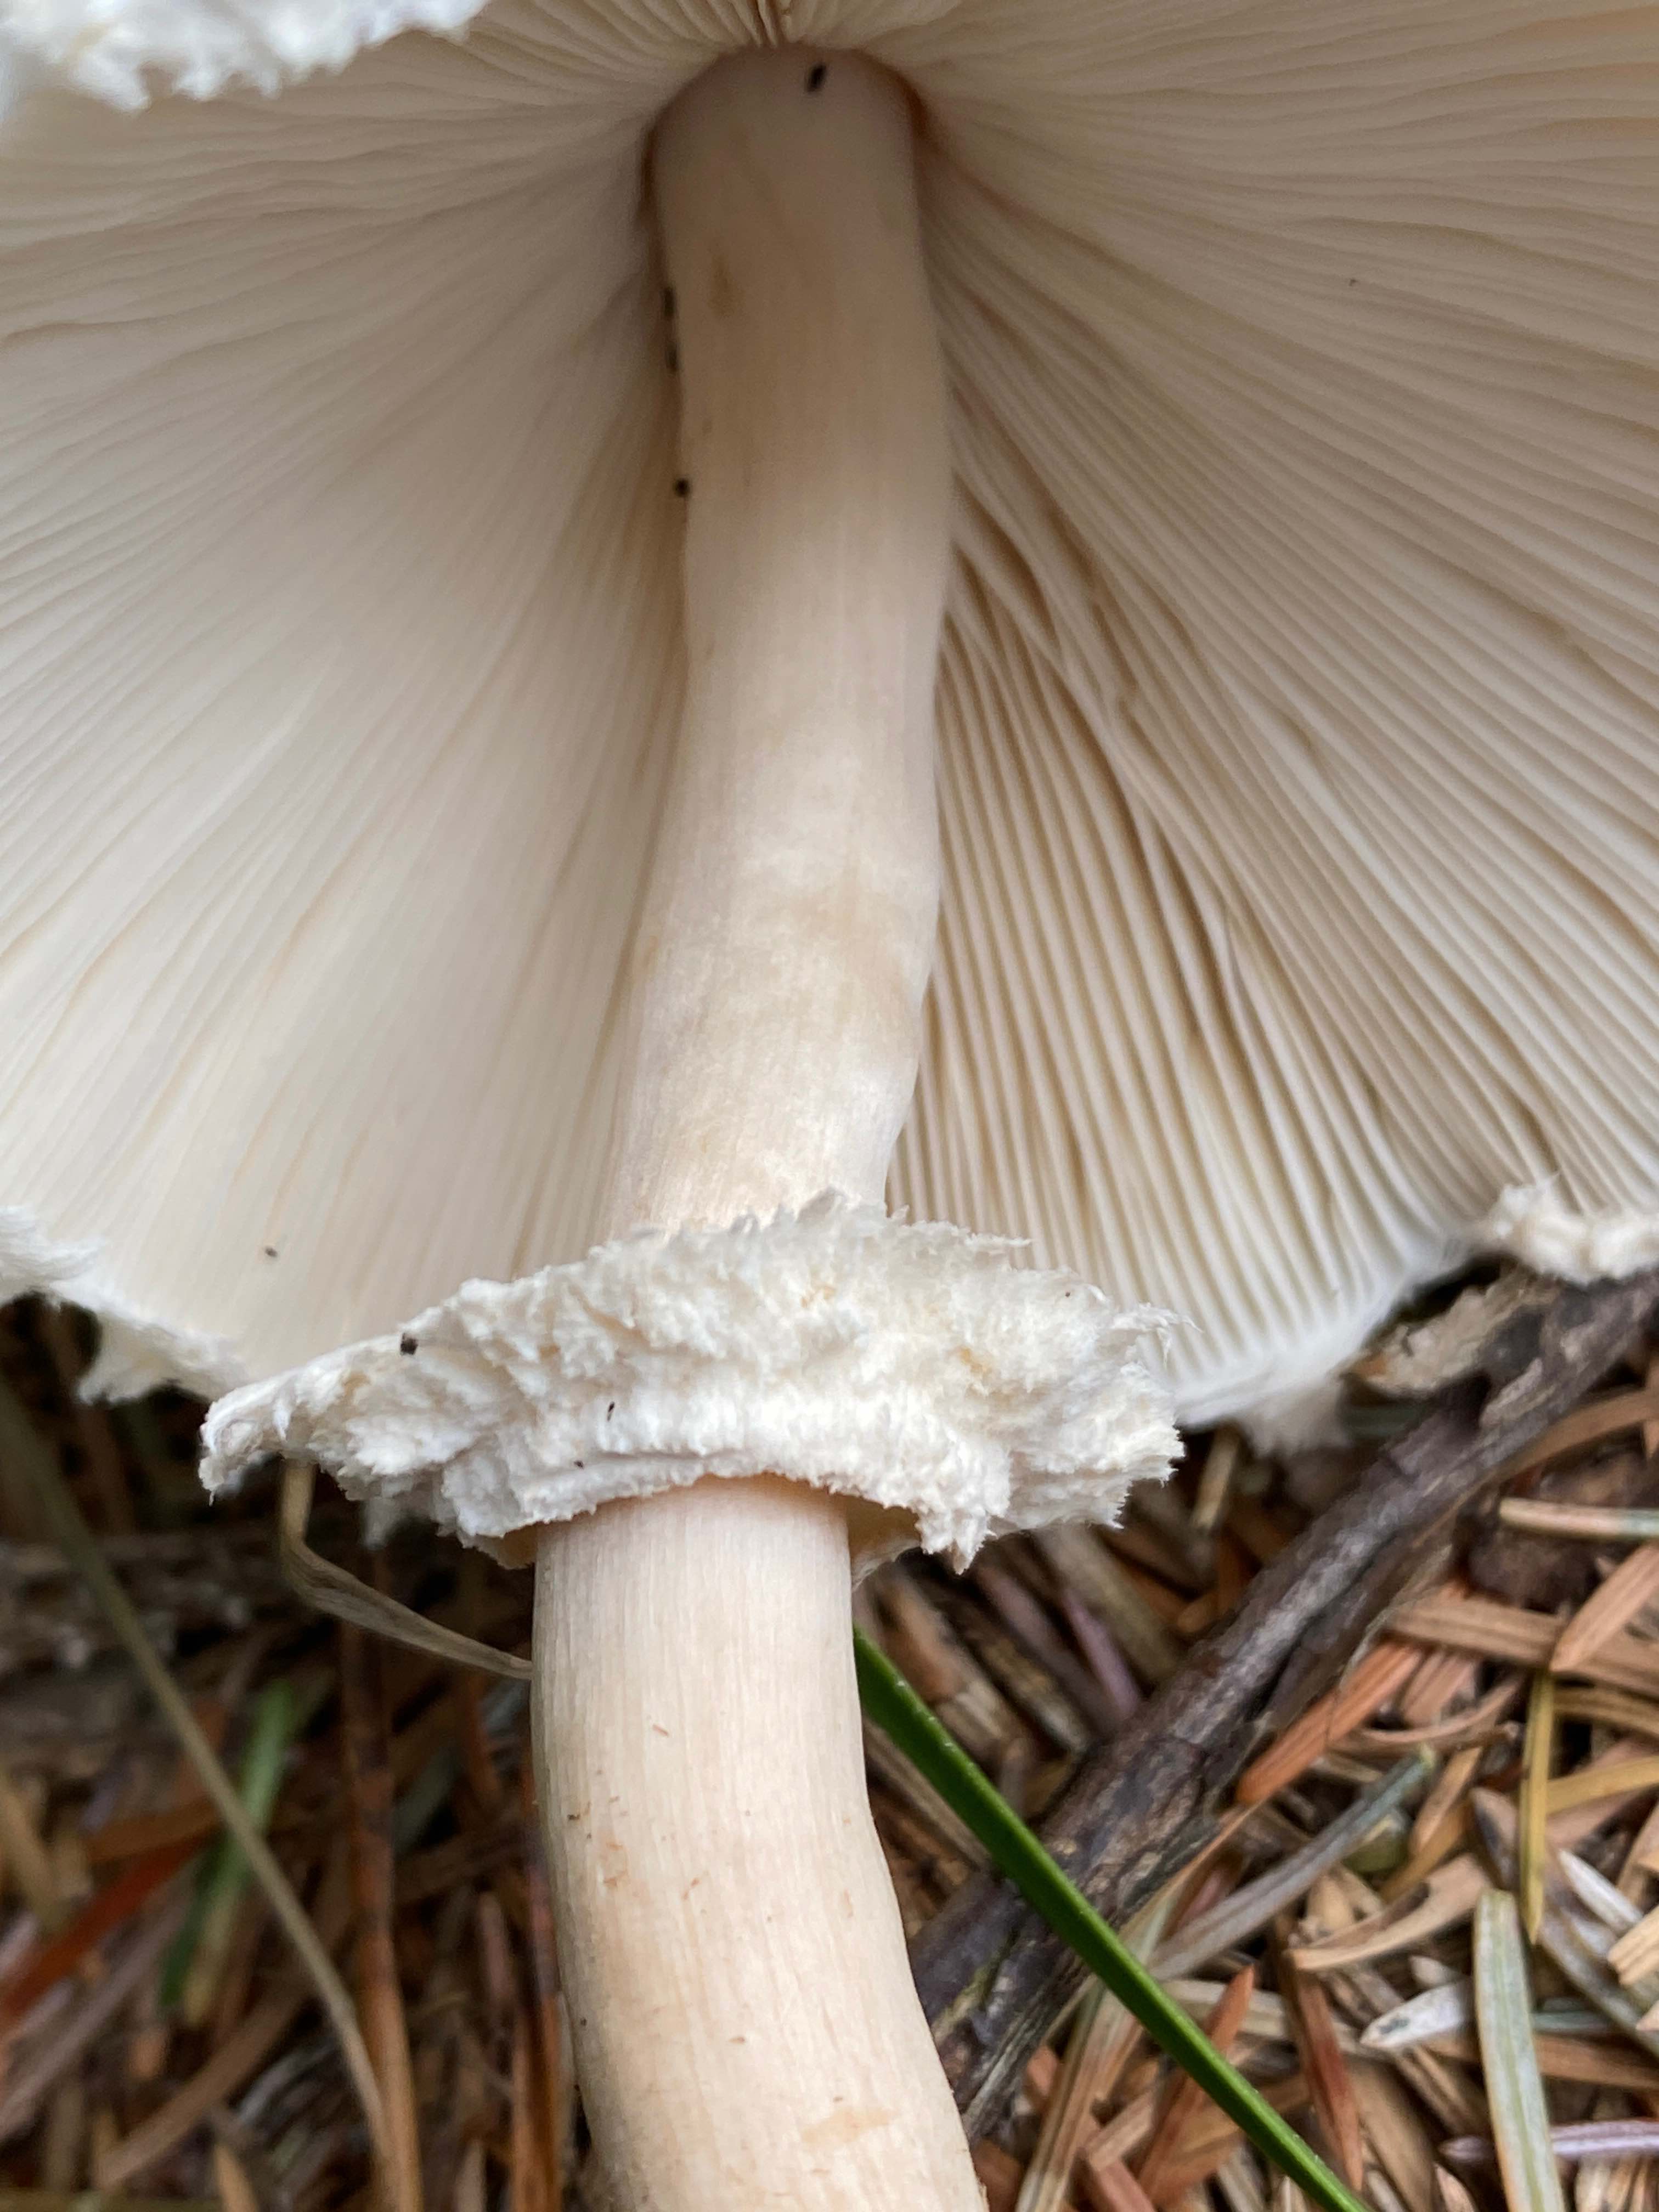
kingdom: Fungi
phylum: Basidiomycota
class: Agaricomycetes
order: Agaricales
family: Agaricaceae
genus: Leucoagaricus
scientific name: Leucoagaricus nympharum
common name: gran-silkehat
